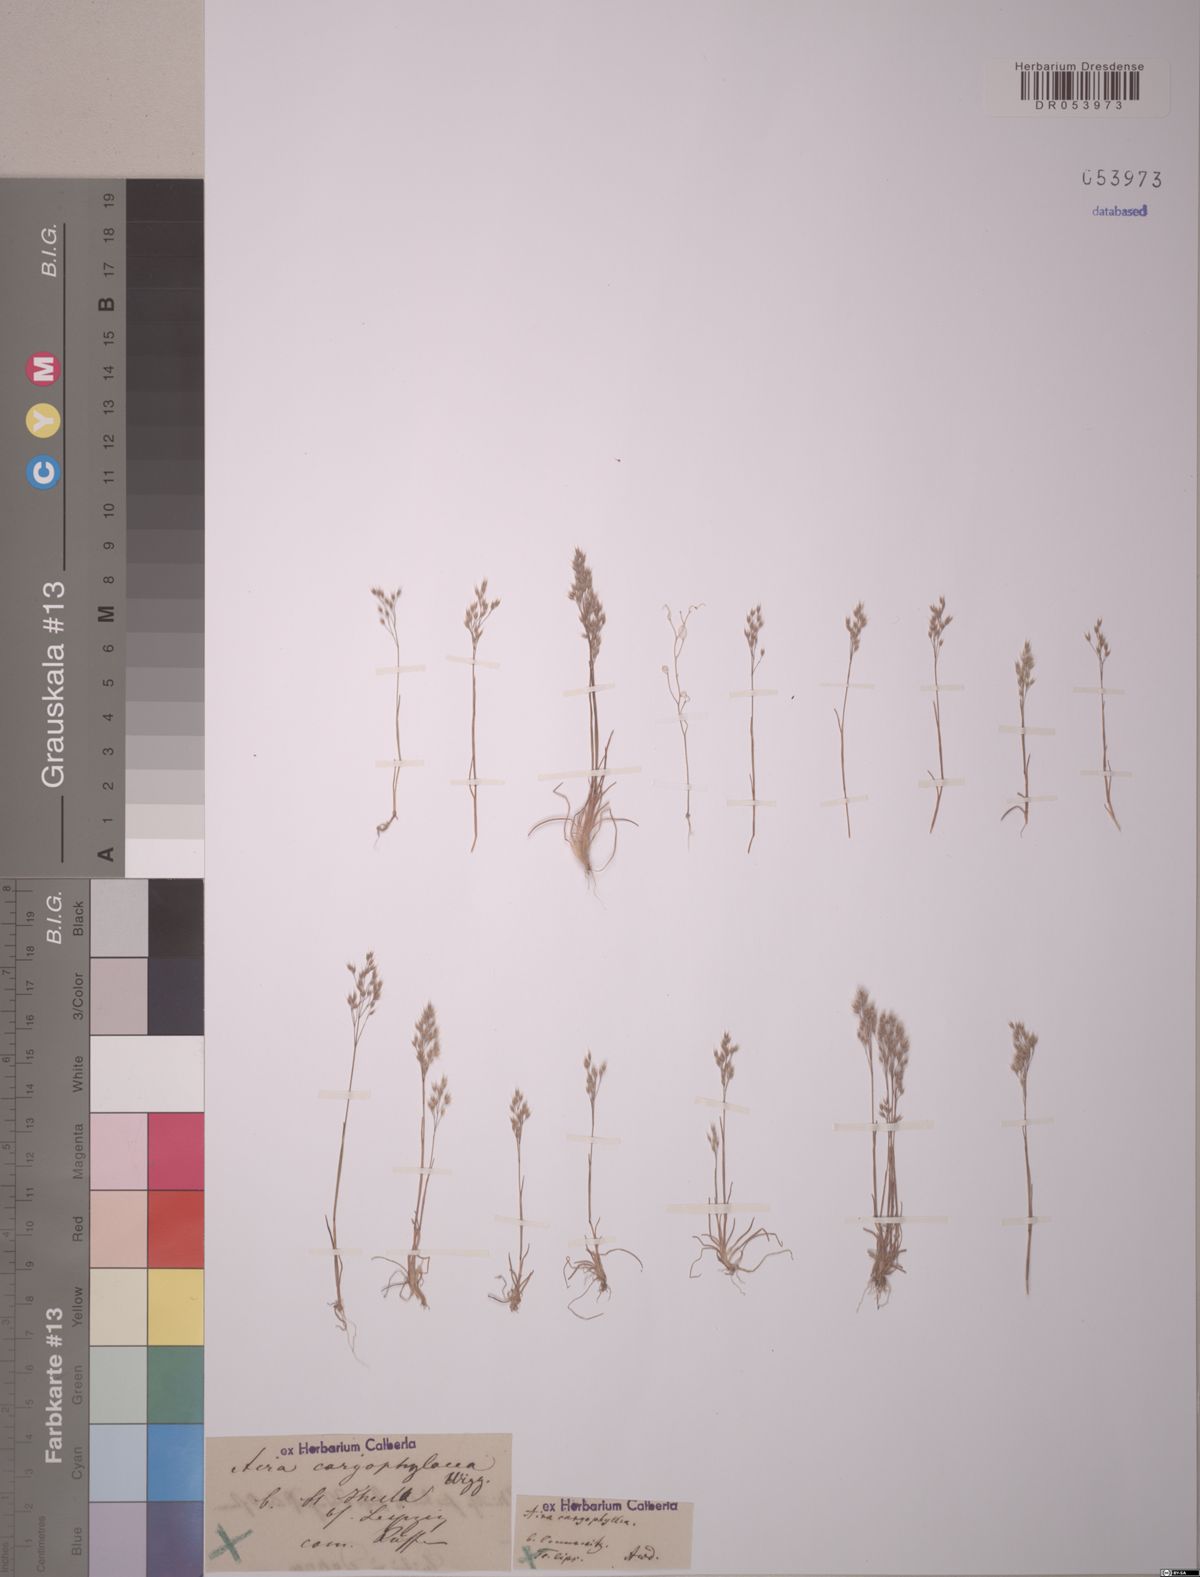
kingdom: Plantae
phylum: Tracheophyta
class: Liliopsida
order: Poales
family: Poaceae
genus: Aira
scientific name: Aira caryophyllea
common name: Silver hairgrass
